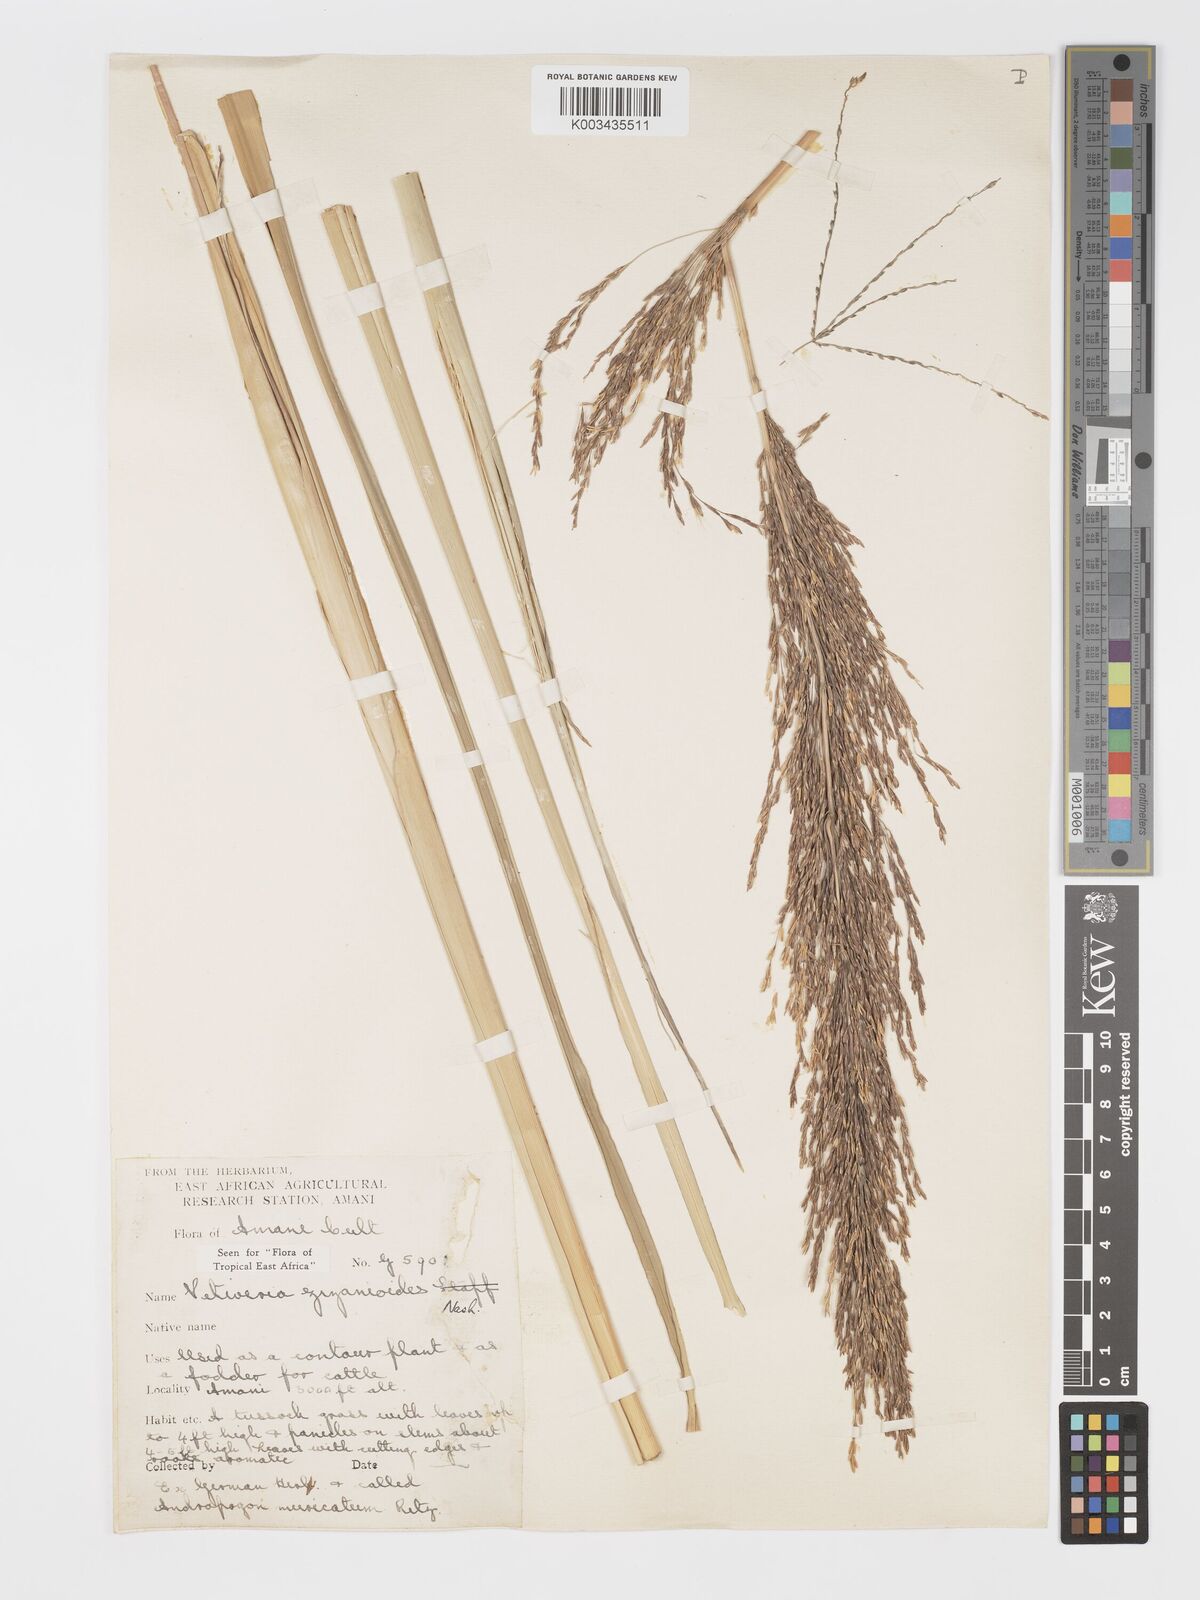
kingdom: Plantae
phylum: Tracheophyta
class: Liliopsida
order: Poales
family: Poaceae
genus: Chrysopogon
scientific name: Chrysopogon zizanioides
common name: False beardgrass
